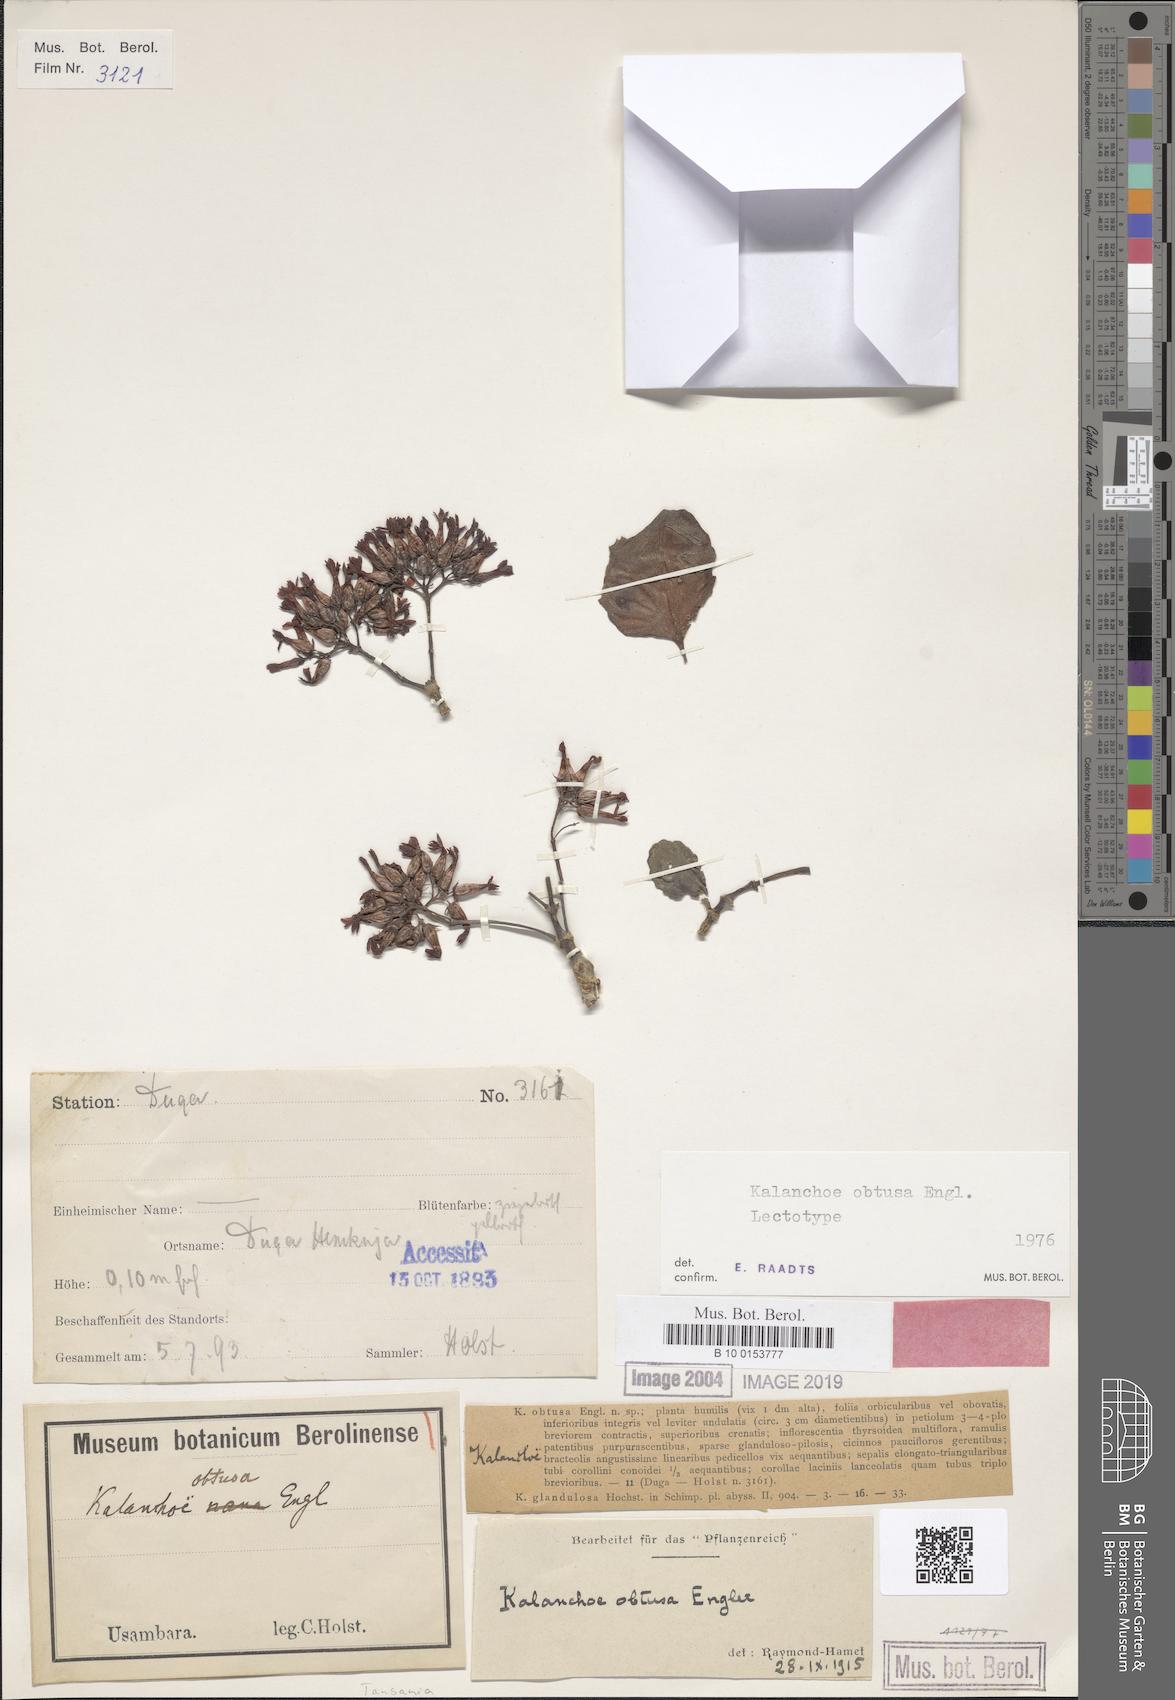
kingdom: Plantae
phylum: Tracheophyta
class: Magnoliopsida
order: Saxifragales
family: Crassulaceae
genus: Kalanchoe
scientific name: Kalanchoe obtusa
